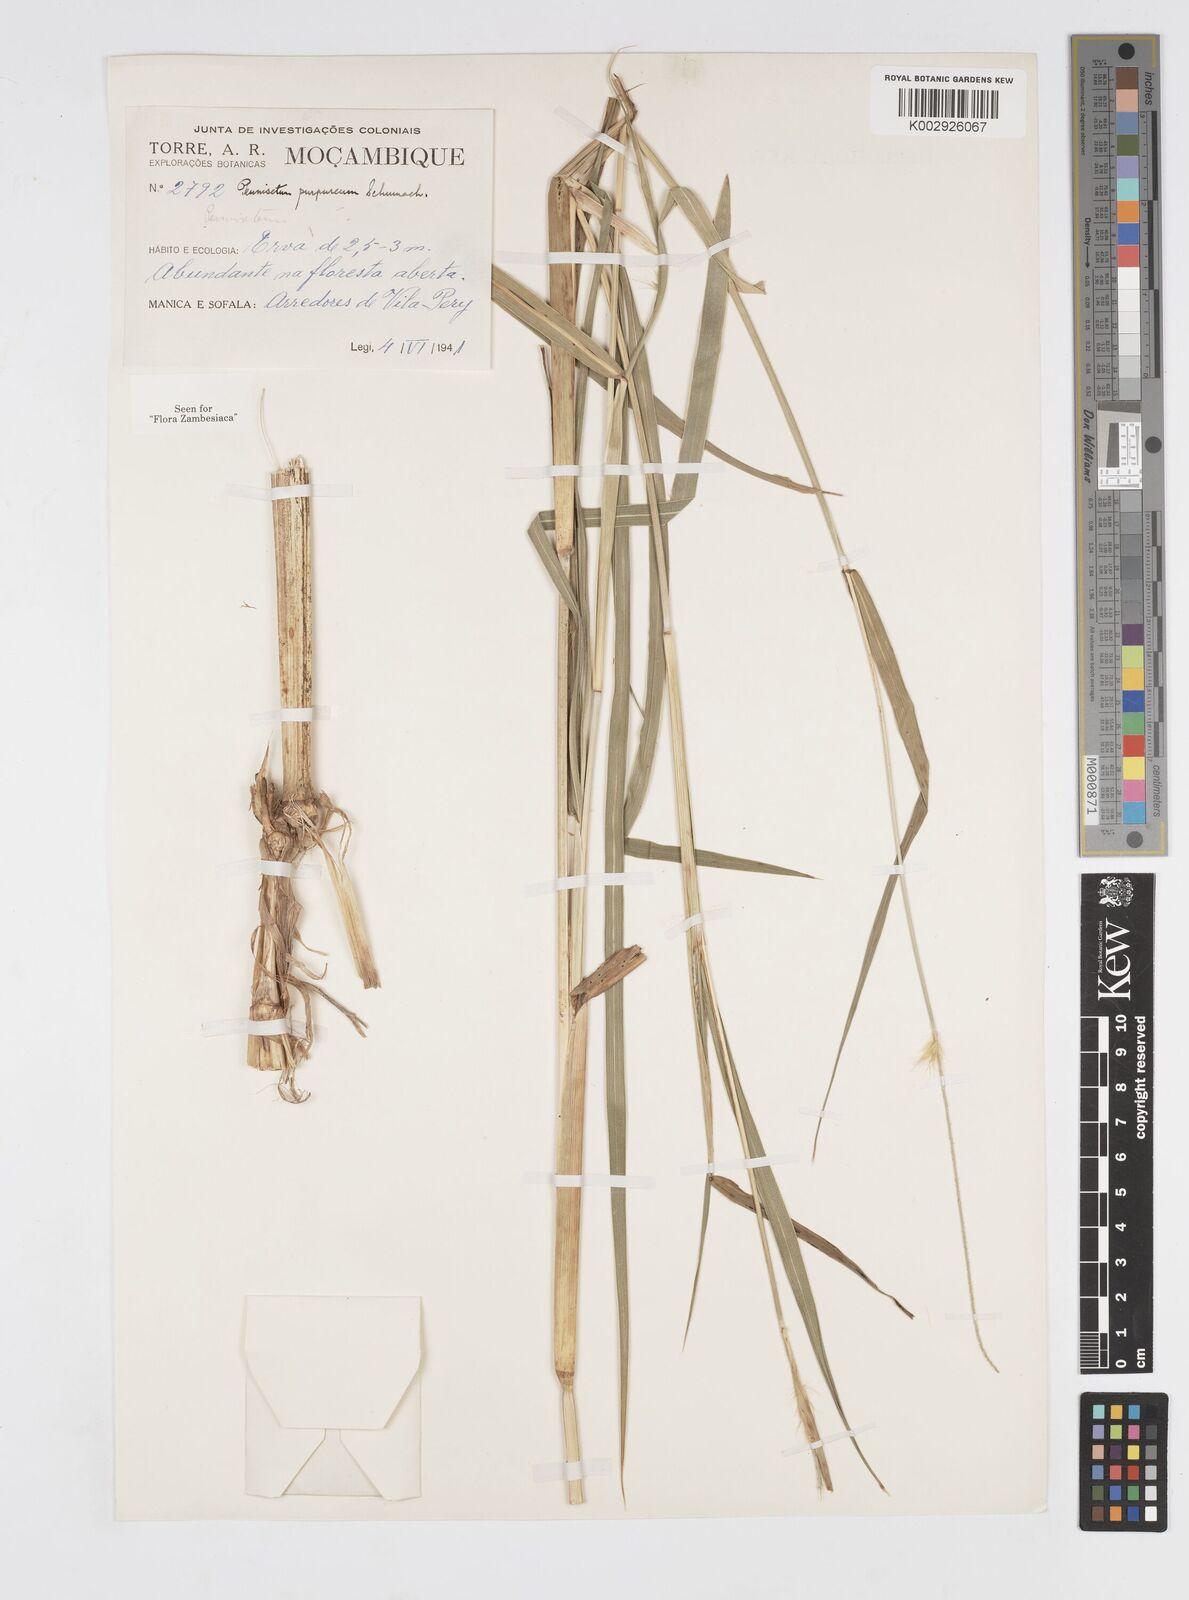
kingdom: Plantae
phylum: Tracheophyta
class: Liliopsida
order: Poales
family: Poaceae
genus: Cenchrus
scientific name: Cenchrus purpureus
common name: Elephant grass
